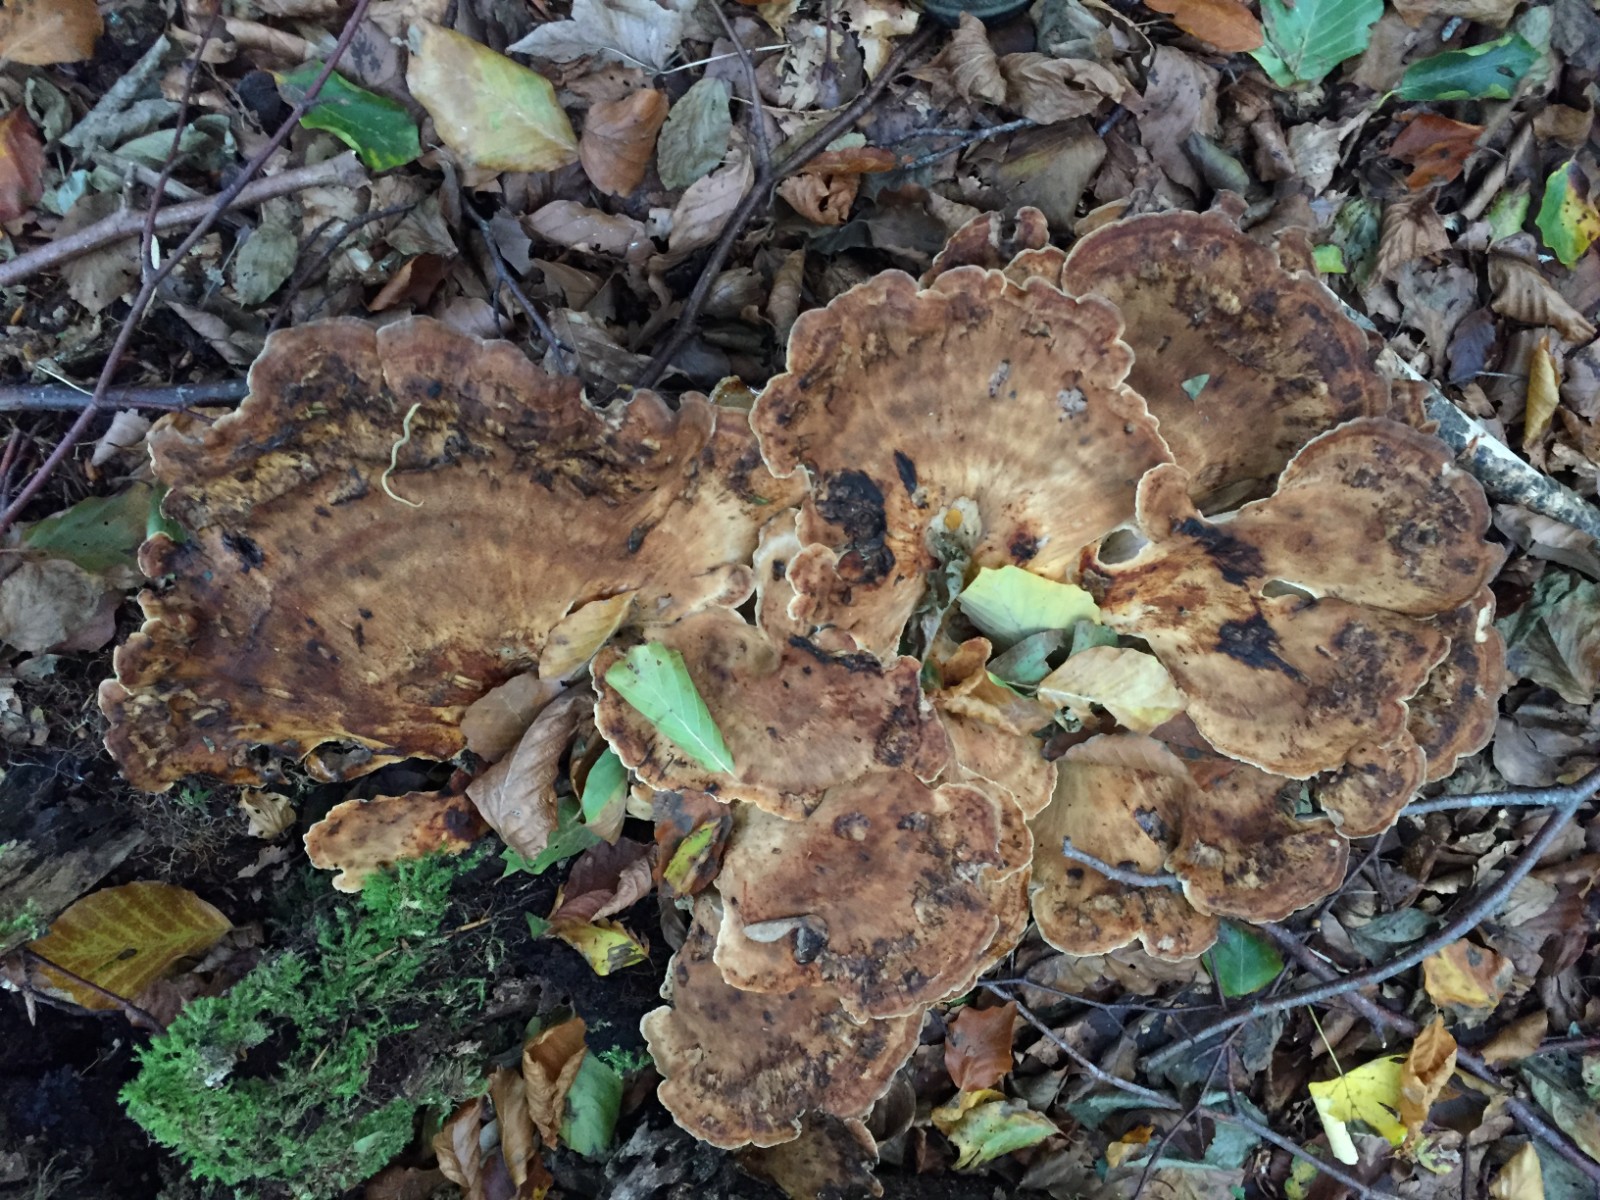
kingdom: Fungi
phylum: Basidiomycota
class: Agaricomycetes
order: Polyporales
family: Meripilaceae
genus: Meripilus
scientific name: Meripilus giganteus
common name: kæmpeporesvamp
